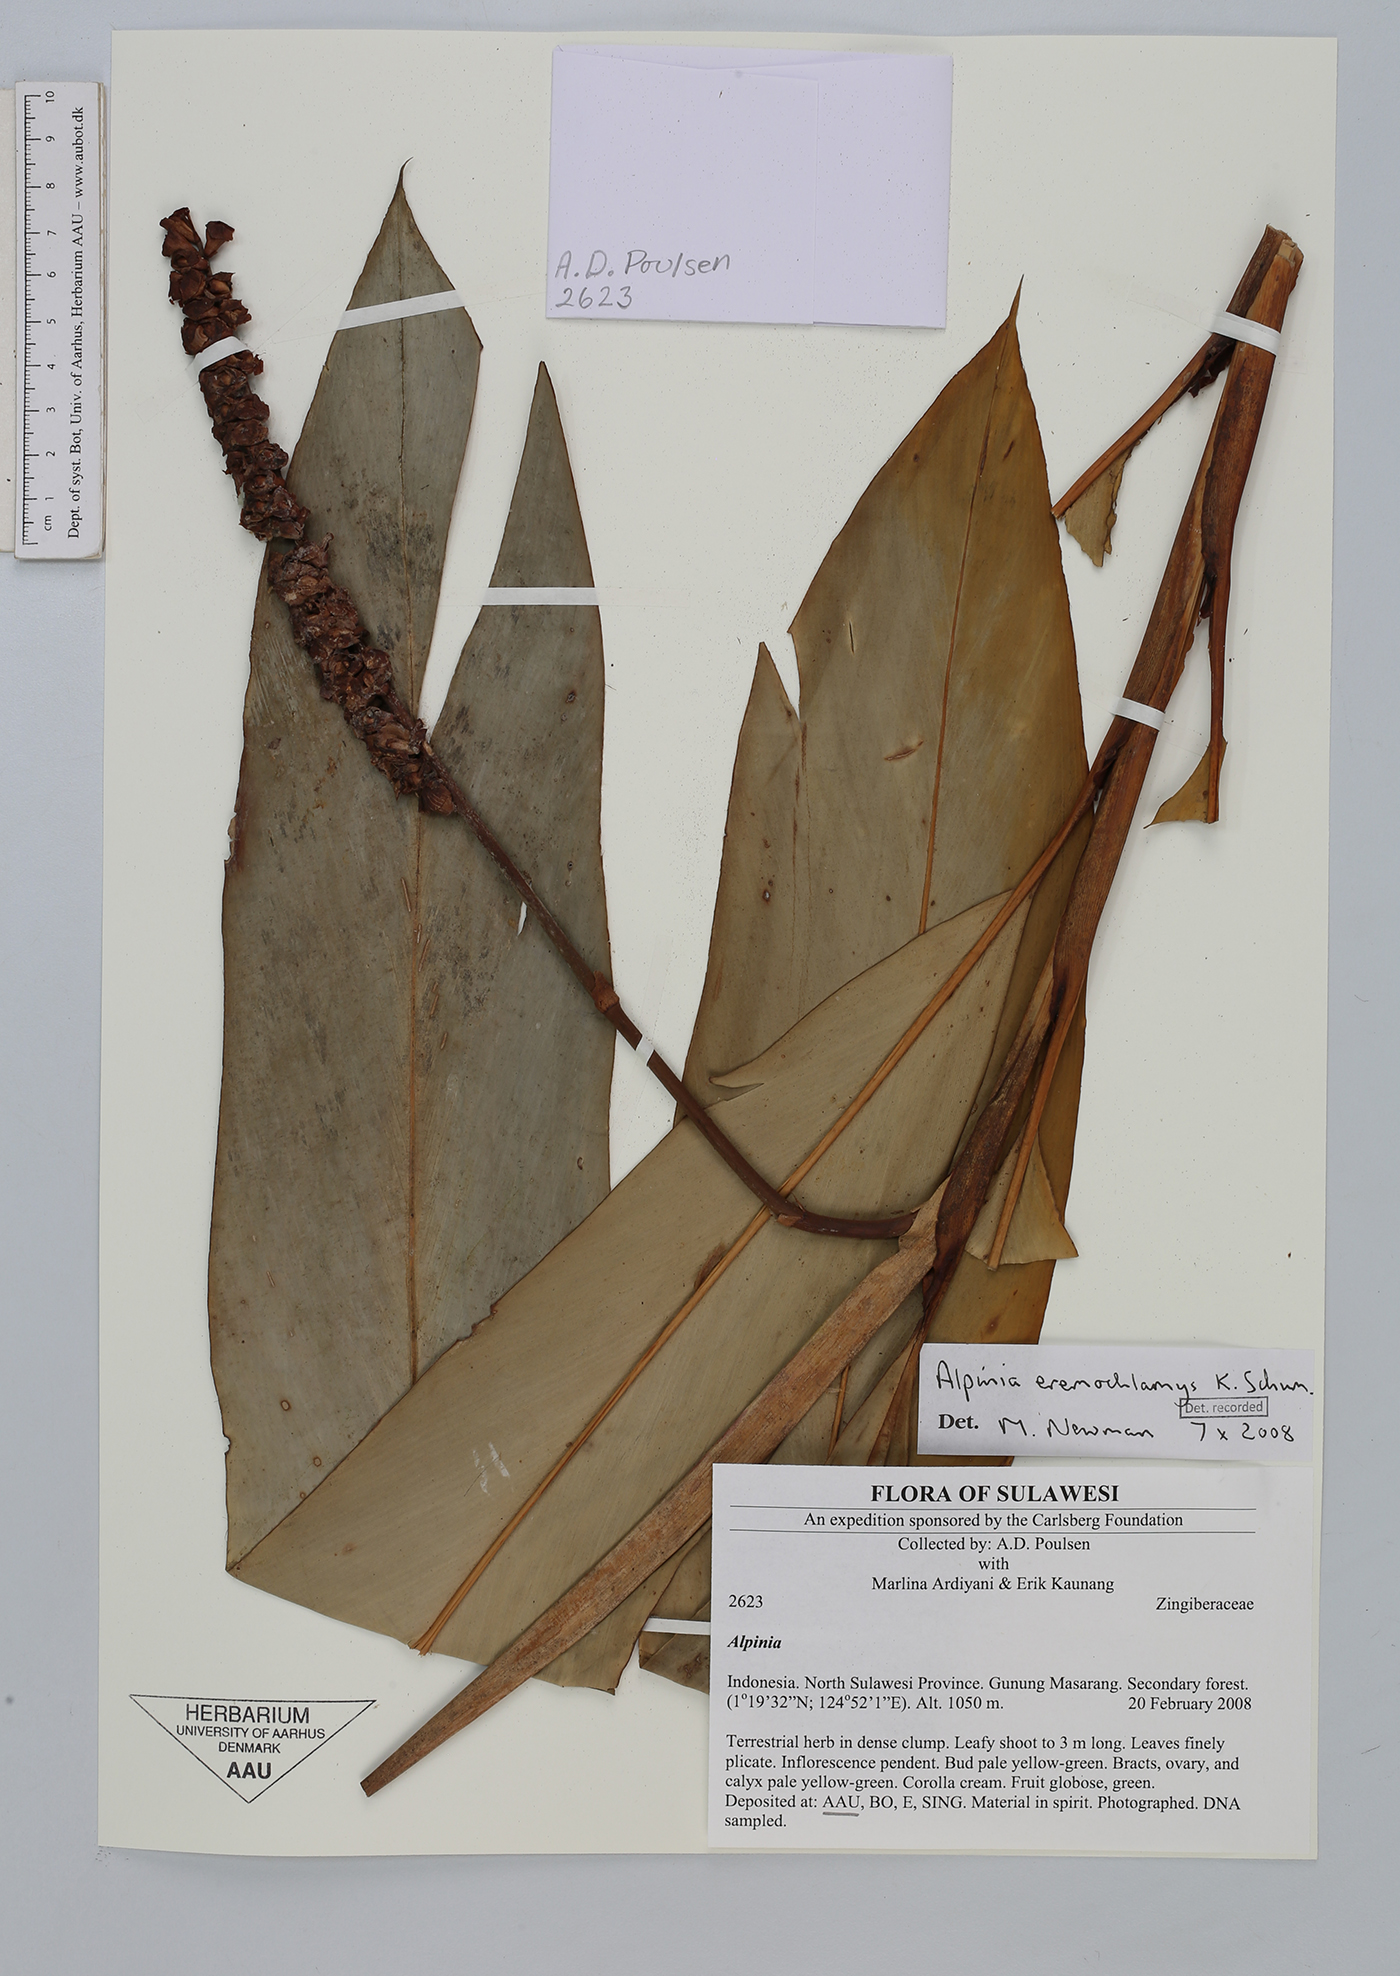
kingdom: Plantae
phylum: Tracheophyta
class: Liliopsida
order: Zingiberales
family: Zingiberaceae
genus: Alpinia
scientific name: Alpinia eremochlamys
